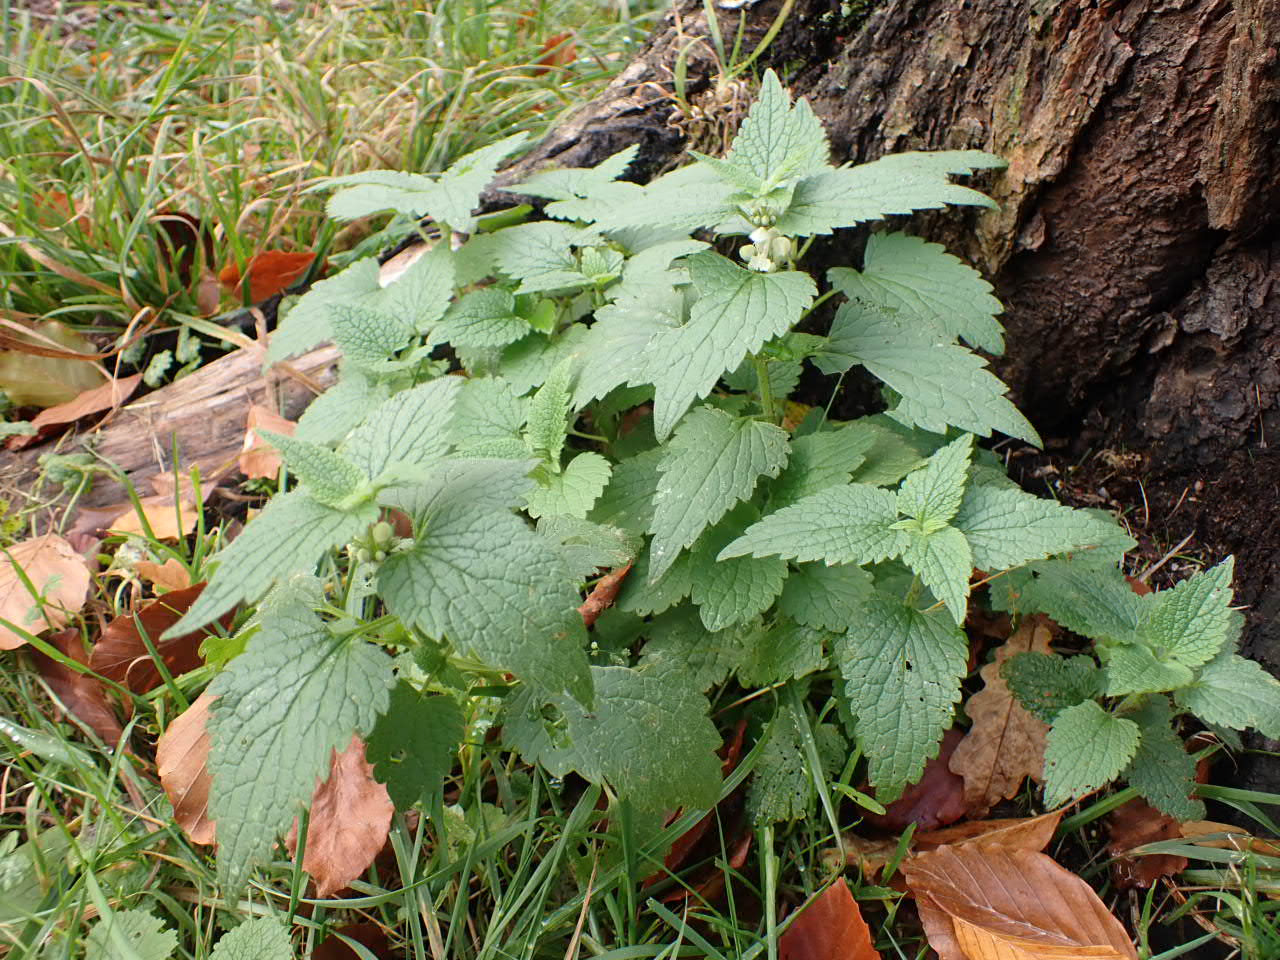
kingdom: Plantae
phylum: Tracheophyta
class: Magnoliopsida
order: Lamiales
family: Lamiaceae
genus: Lamium
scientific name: Lamium album
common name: Døvnælde
